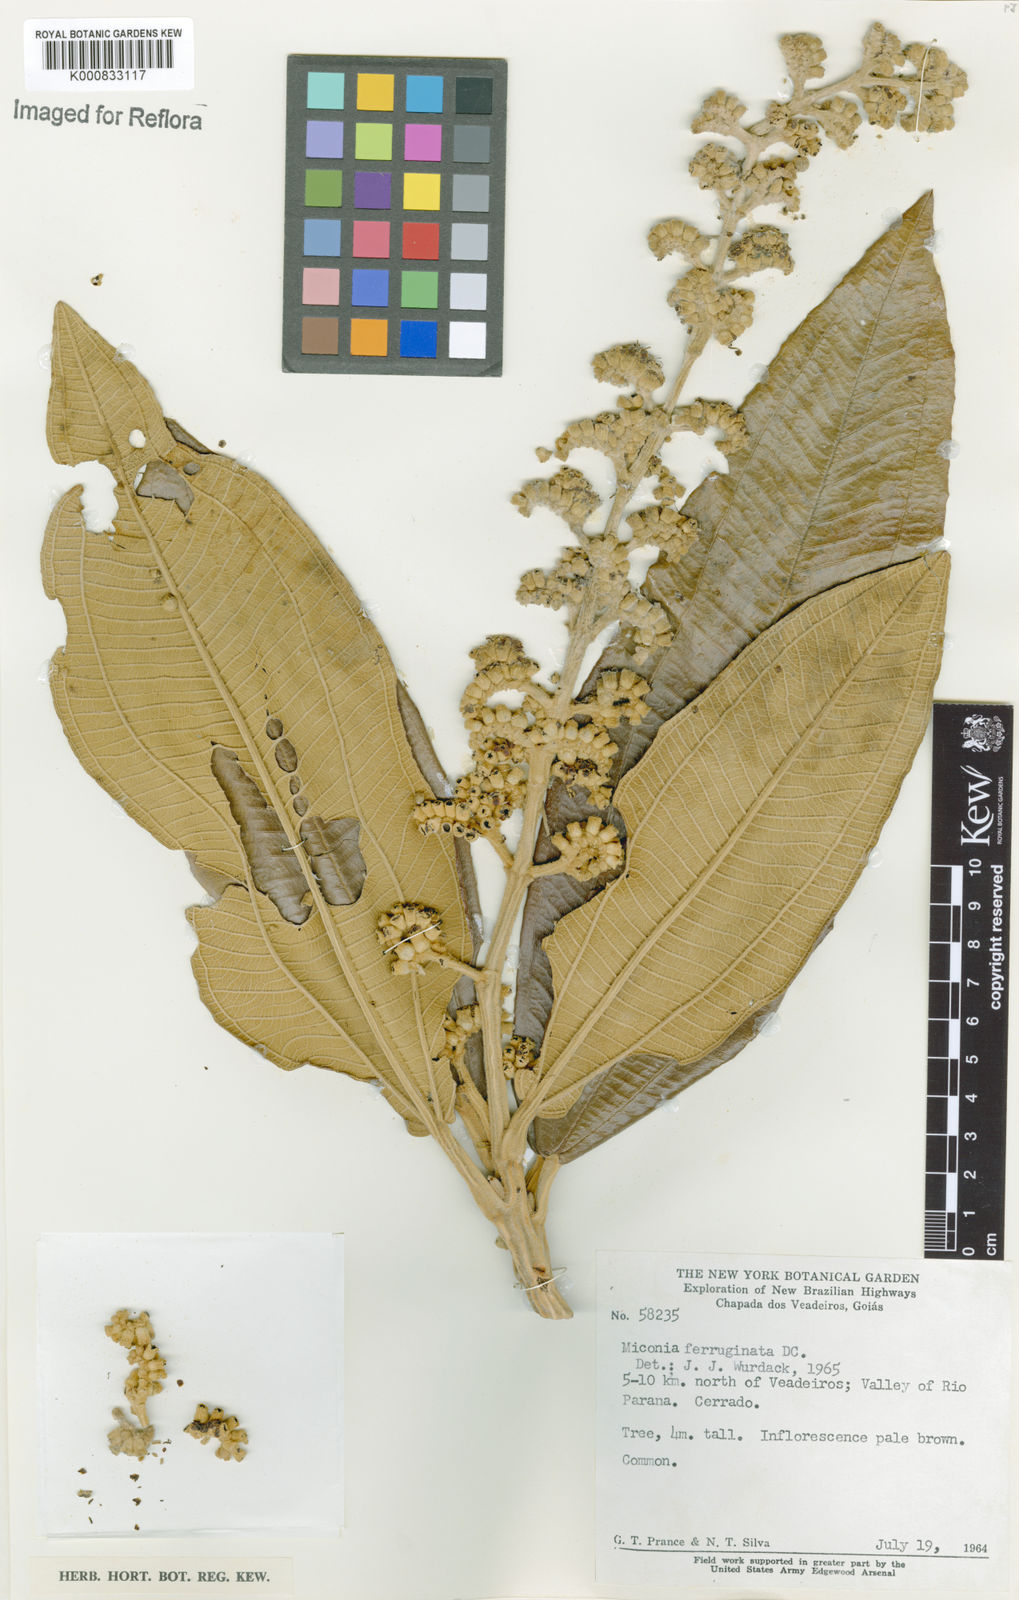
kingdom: Plantae
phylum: Tracheophyta
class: Magnoliopsida
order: Myrtales
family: Melastomataceae
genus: Miconia
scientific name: Miconia ferruginata
